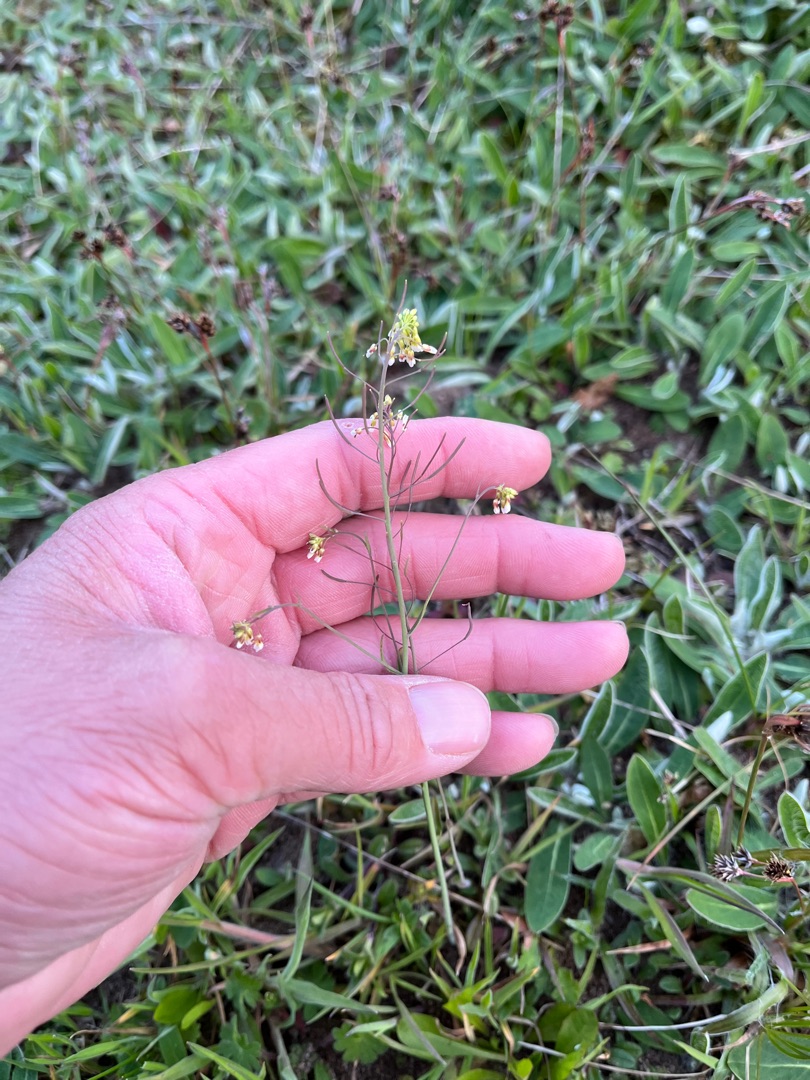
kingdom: Plantae
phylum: Tracheophyta
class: Magnoliopsida
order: Brassicales
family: Brassicaceae
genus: Arabidopsis
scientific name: Arabidopsis thaliana
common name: Almindelig gåsemad
